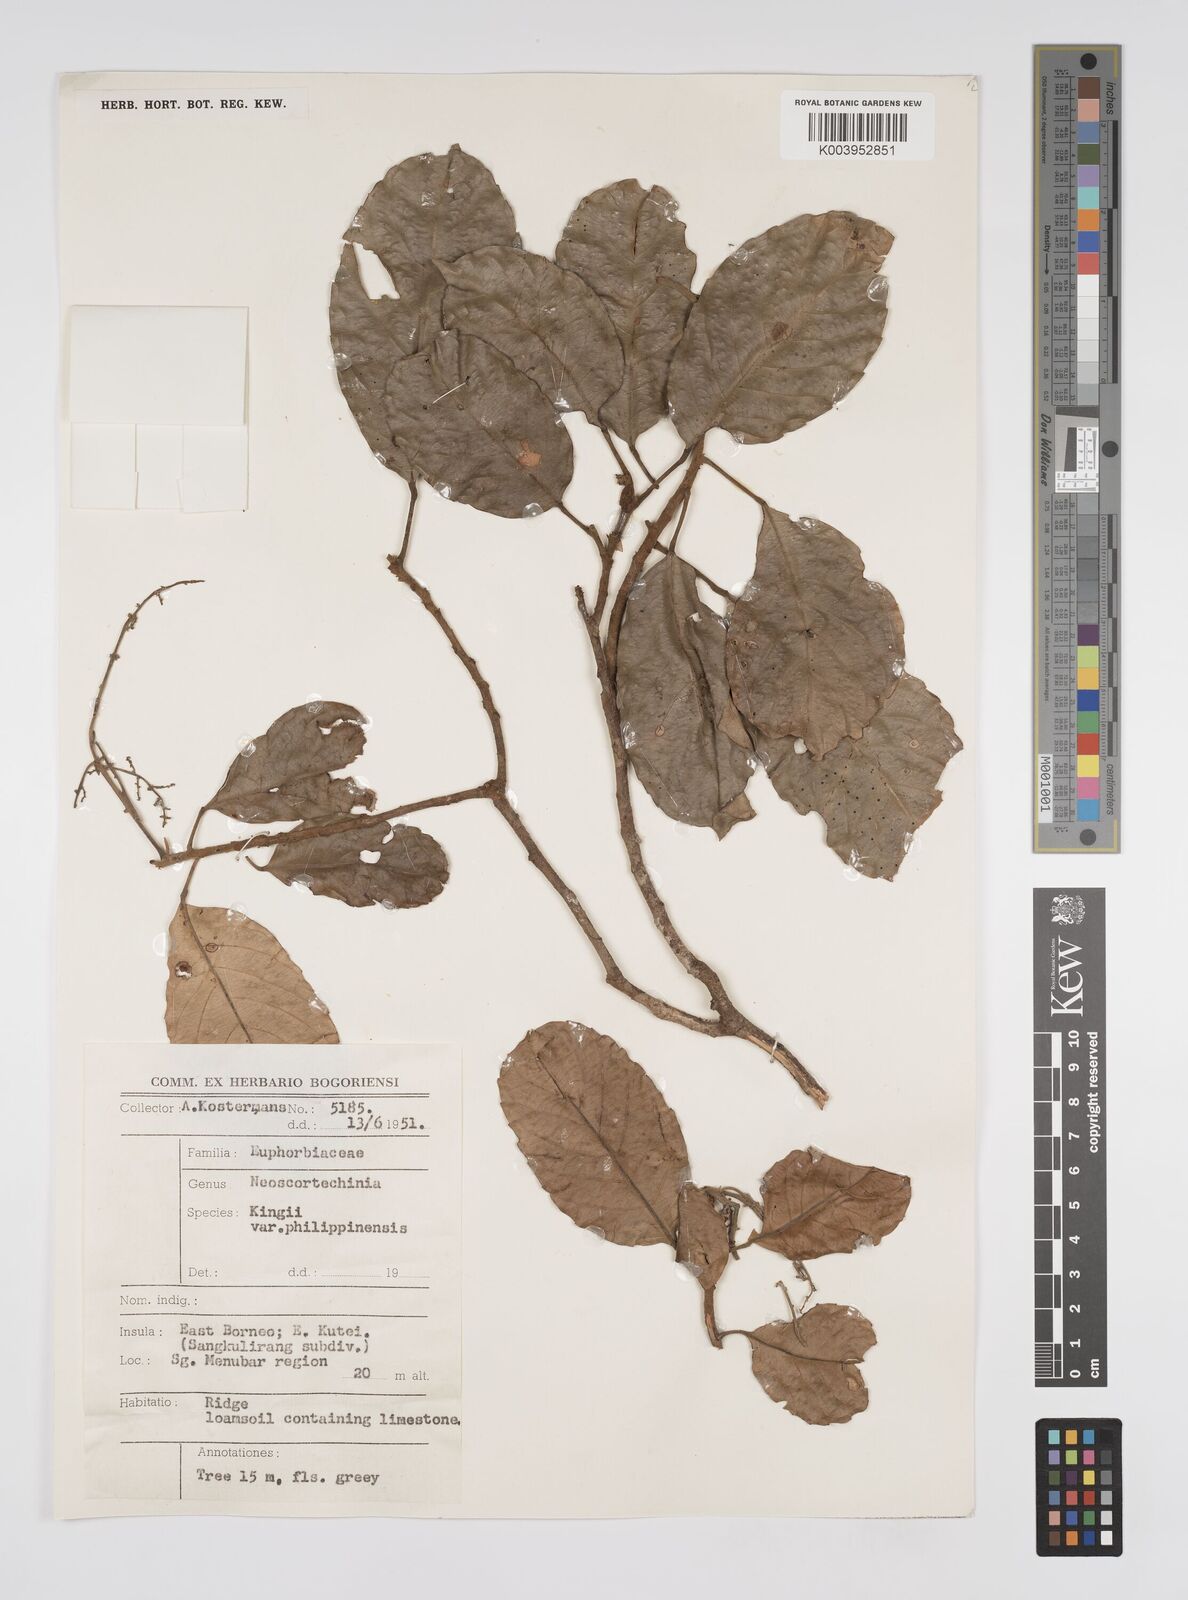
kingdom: Plantae
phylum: Tracheophyta
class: Magnoliopsida
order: Malpighiales
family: Euphorbiaceae
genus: Neoscortechinia
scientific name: Neoscortechinia nicobarica
